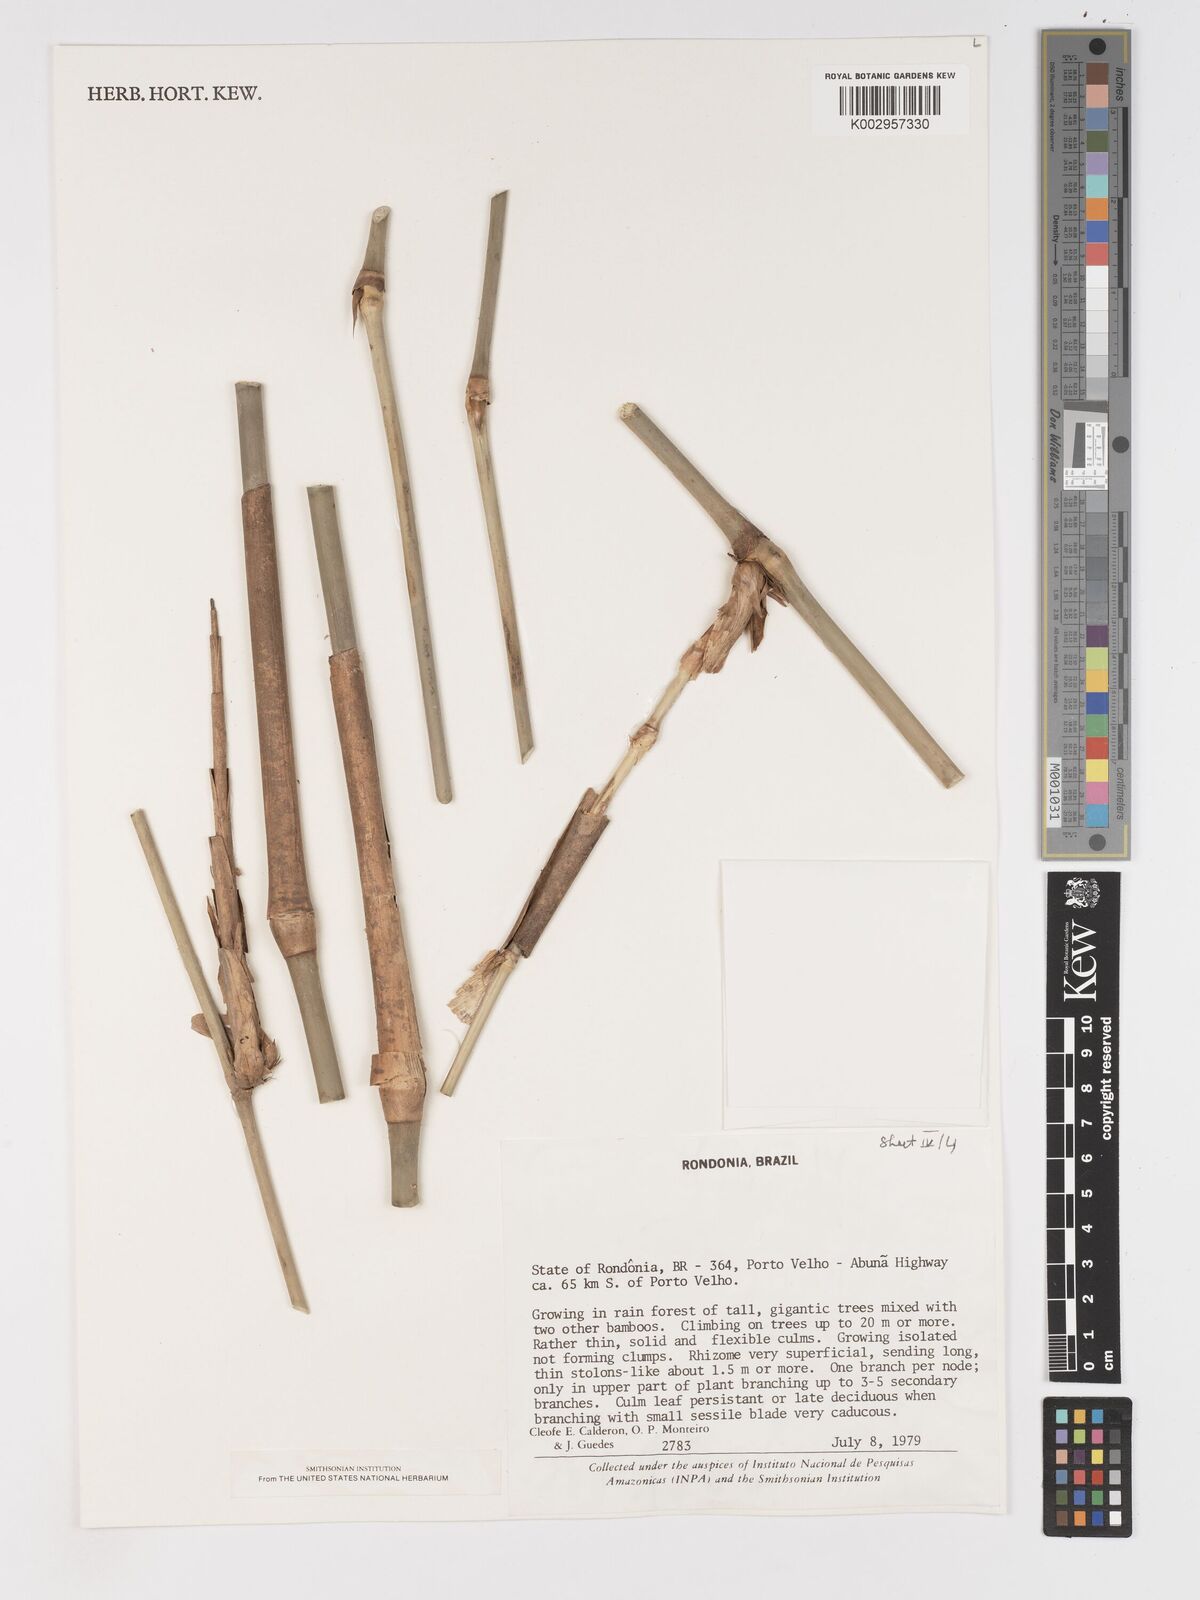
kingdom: Plantae
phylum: Tracheophyta
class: Liliopsida
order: Poales
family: Poaceae
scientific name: Poaceae
